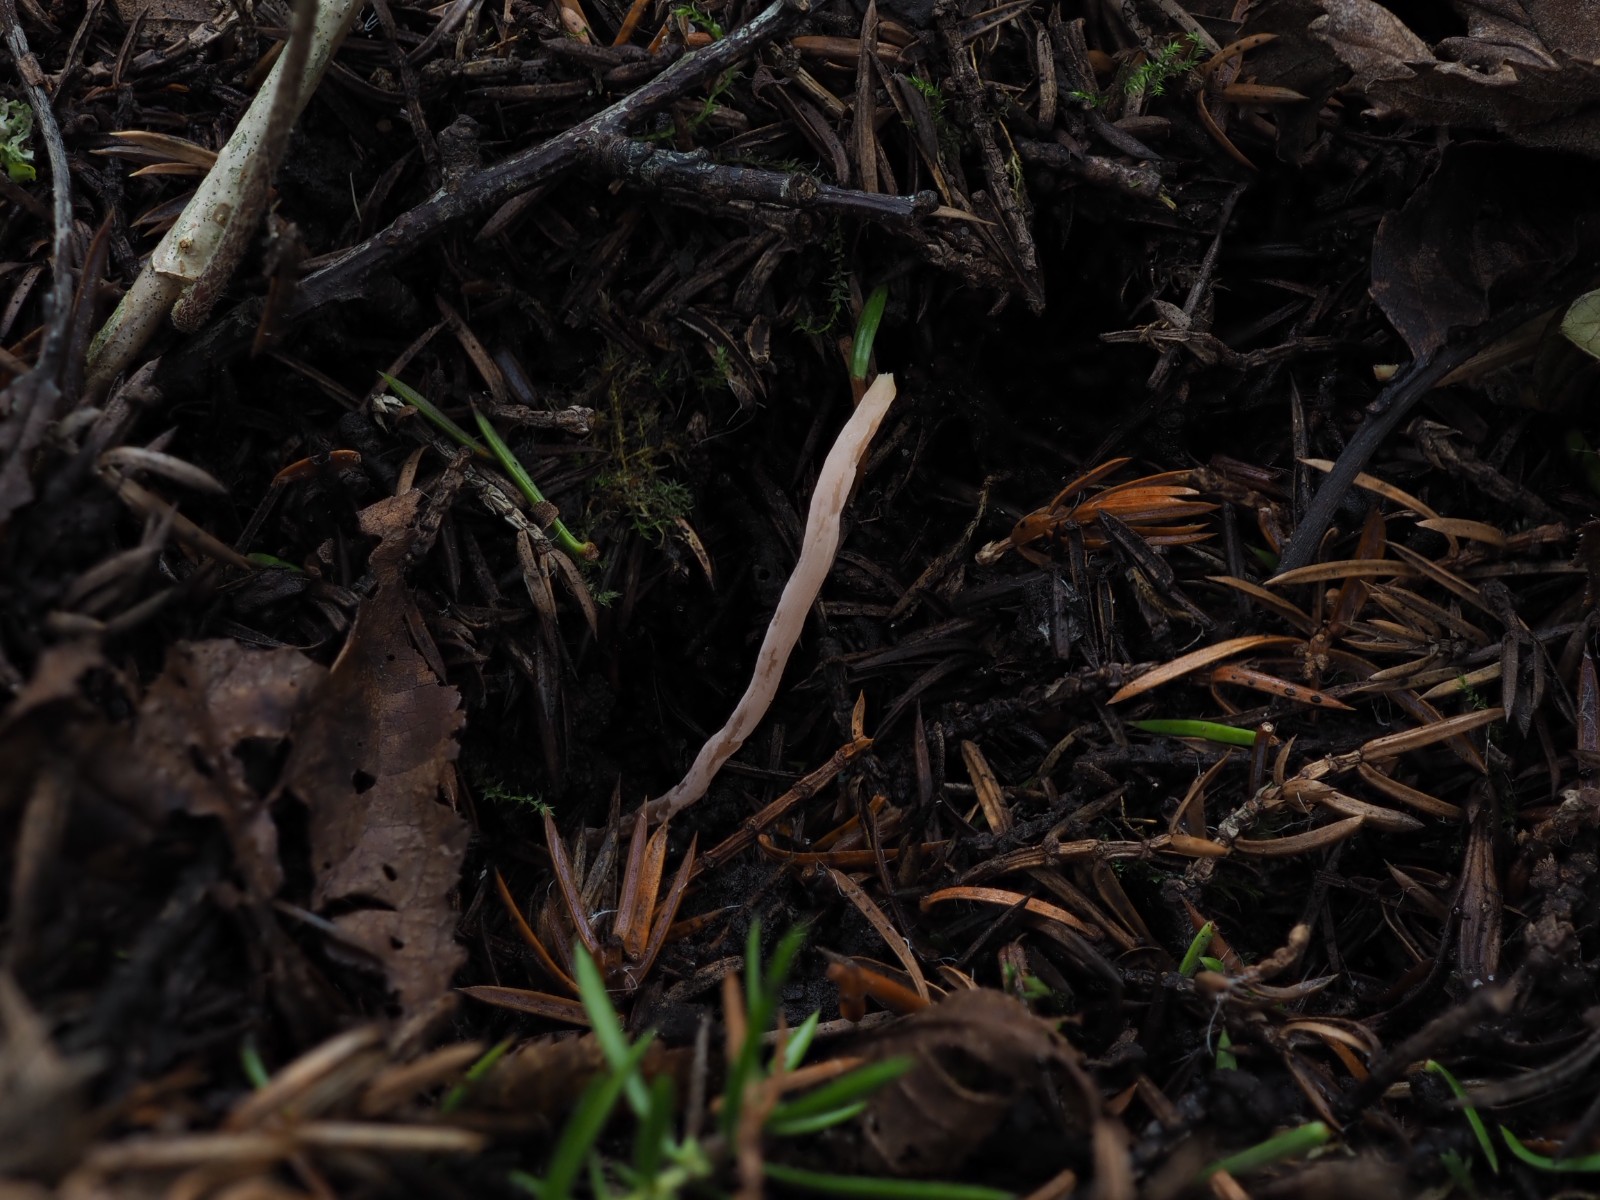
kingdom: Fungi
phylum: Basidiomycota
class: Agaricomycetes
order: Agaricales
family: Clavariaceae
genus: Clavaria
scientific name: Clavaria incarnata
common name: kødrød køllesvamp
